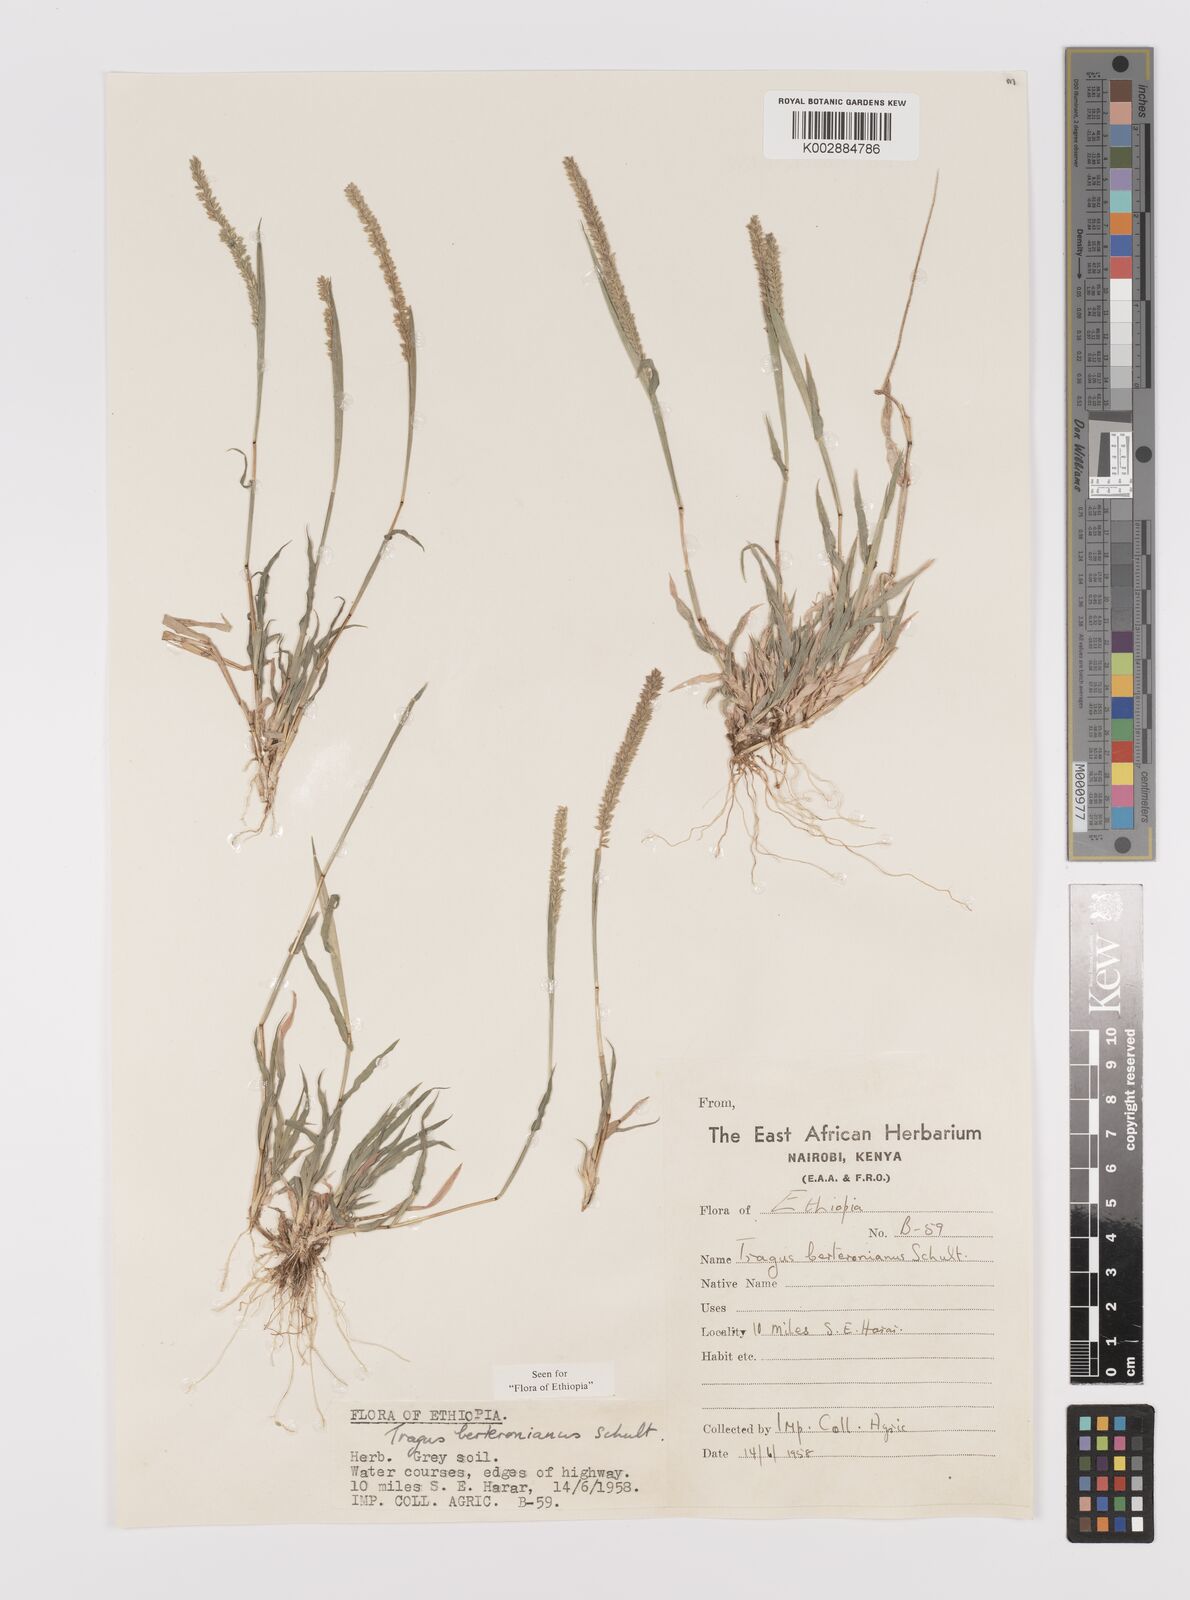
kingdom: Plantae
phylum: Tracheophyta
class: Liliopsida
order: Poales
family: Poaceae
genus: Tragus
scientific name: Tragus berteronianus
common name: African bur-grass
